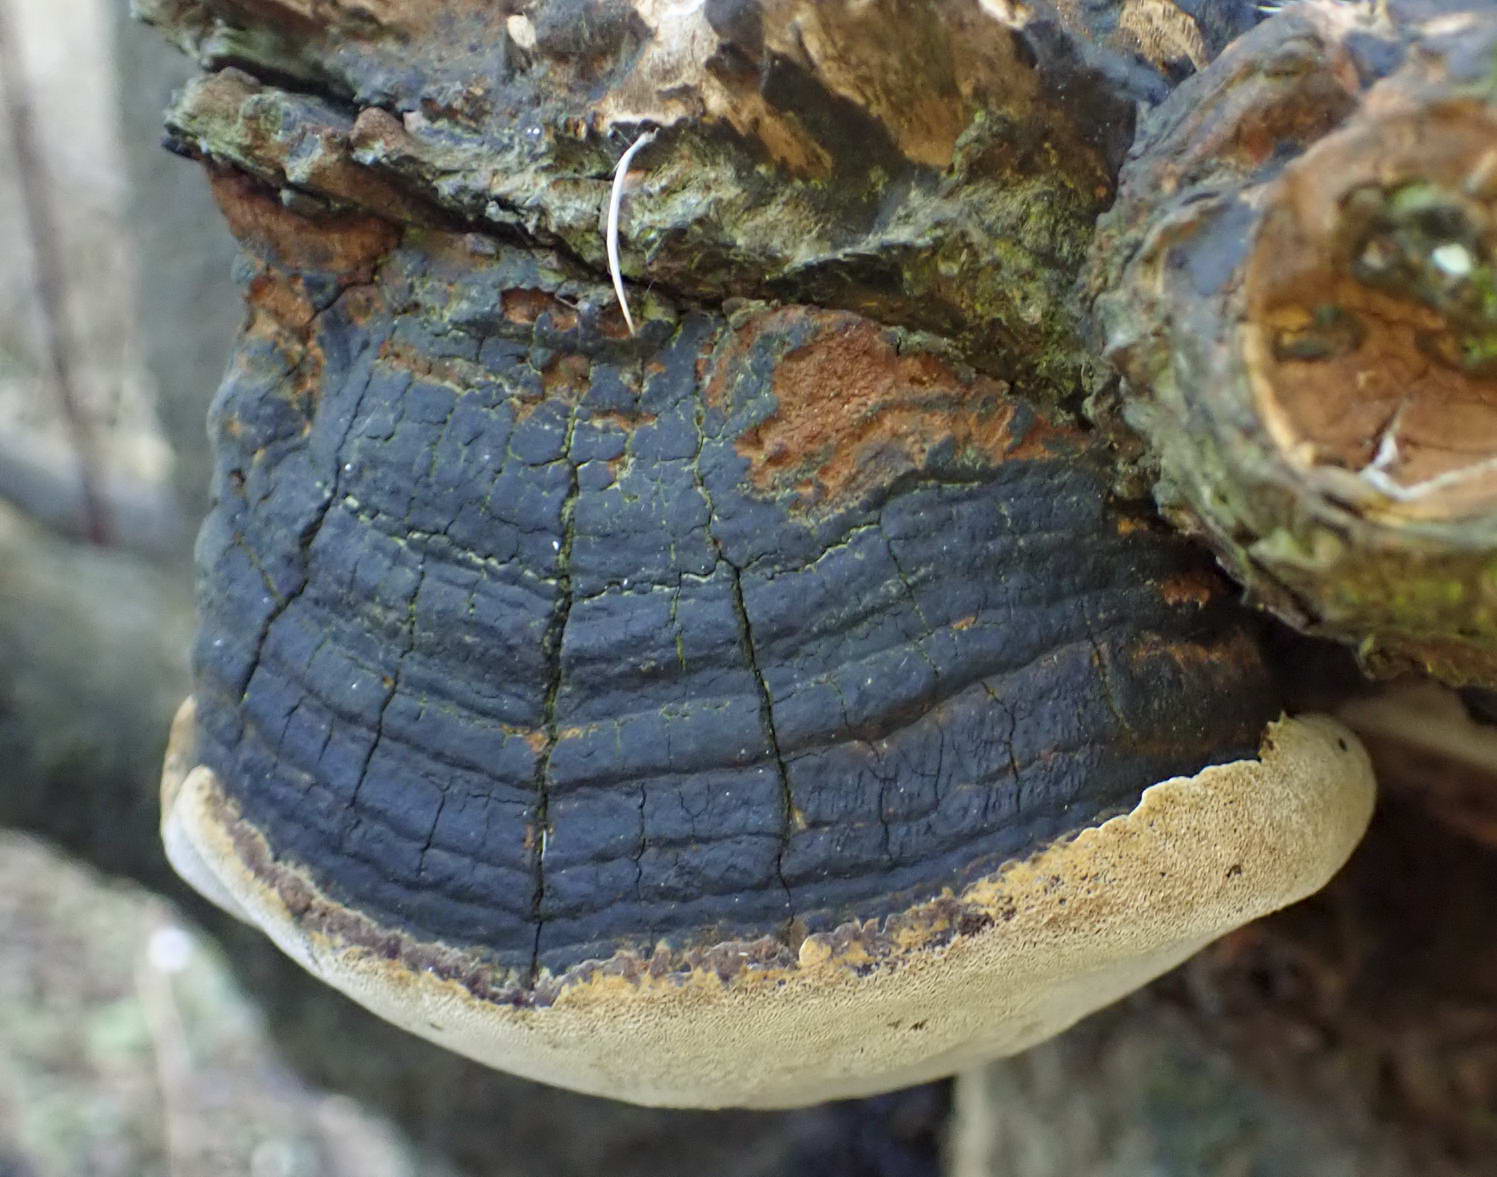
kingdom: Fungi
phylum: Basidiomycota
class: Agaricomycetes
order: Hymenochaetales
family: Hymenochaetaceae
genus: Phellinus
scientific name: Phellinus pomaceus
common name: blomme-ildporesvamp
